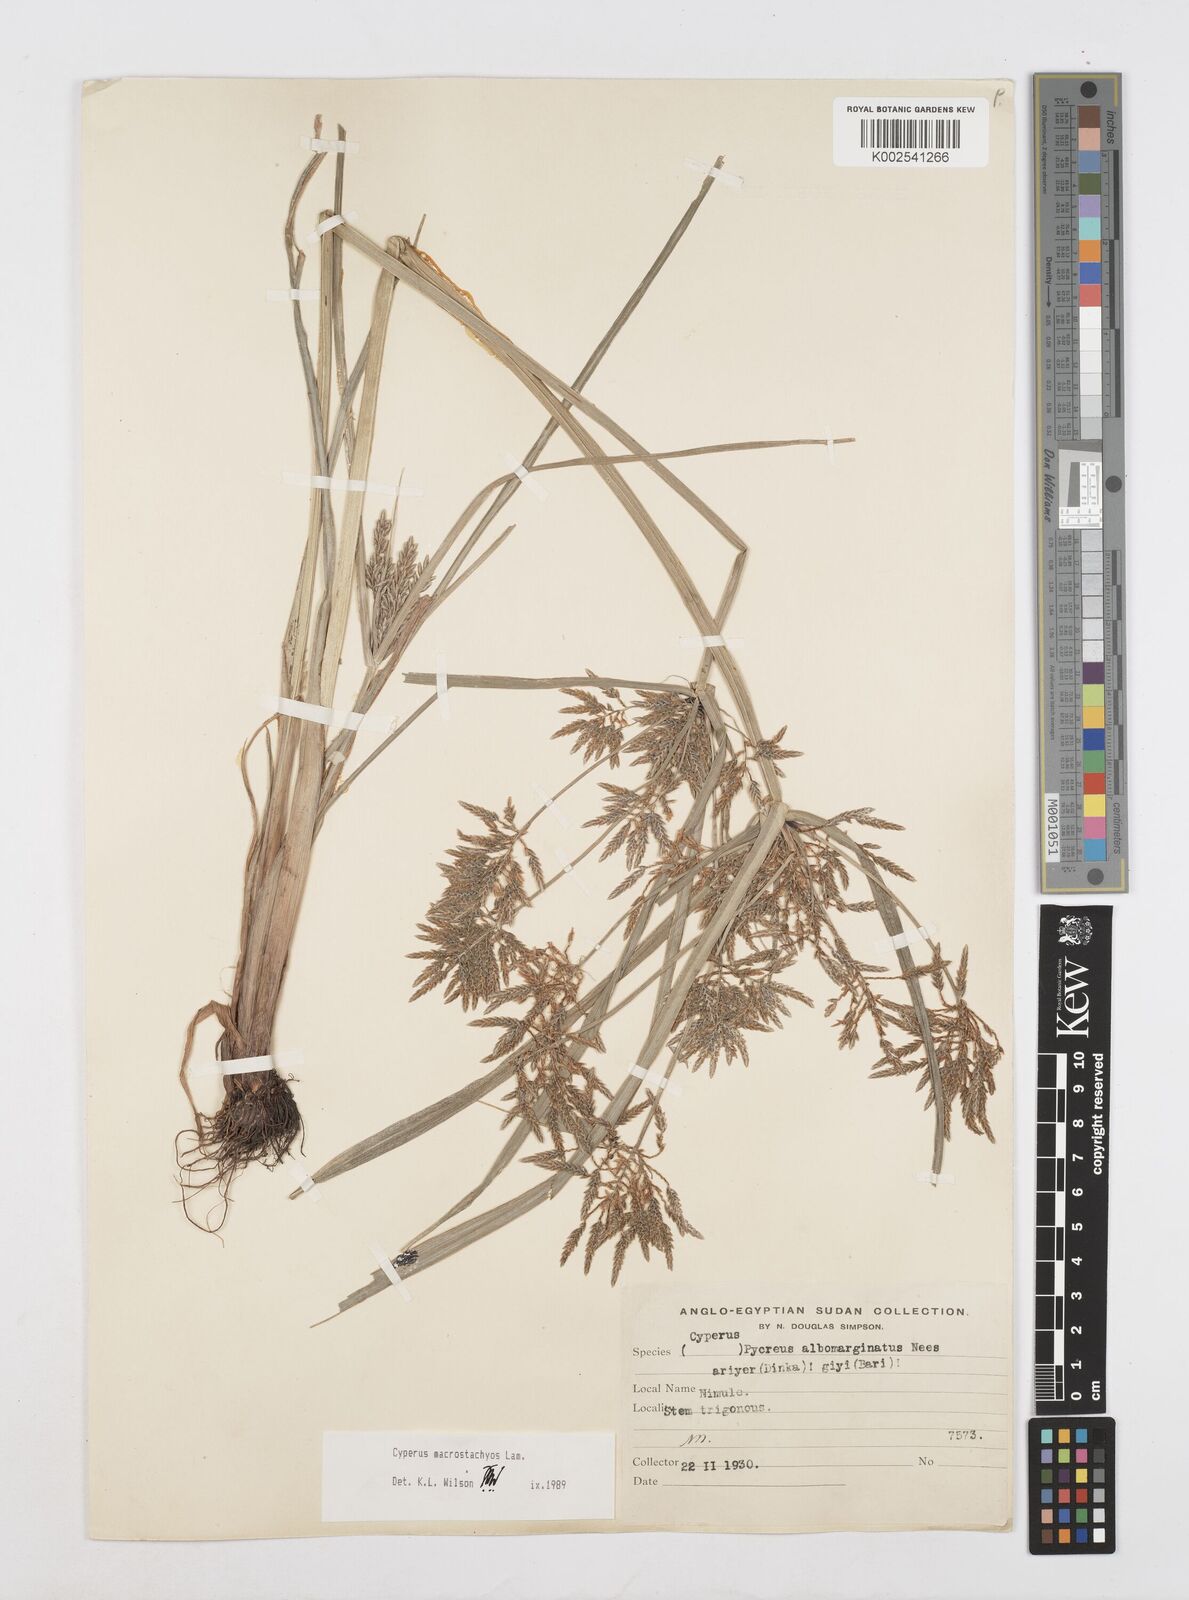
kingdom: Plantae
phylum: Tracheophyta
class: Liliopsida
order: Poales
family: Cyperaceae
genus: Cyperus
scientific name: Cyperus macrostachyos
